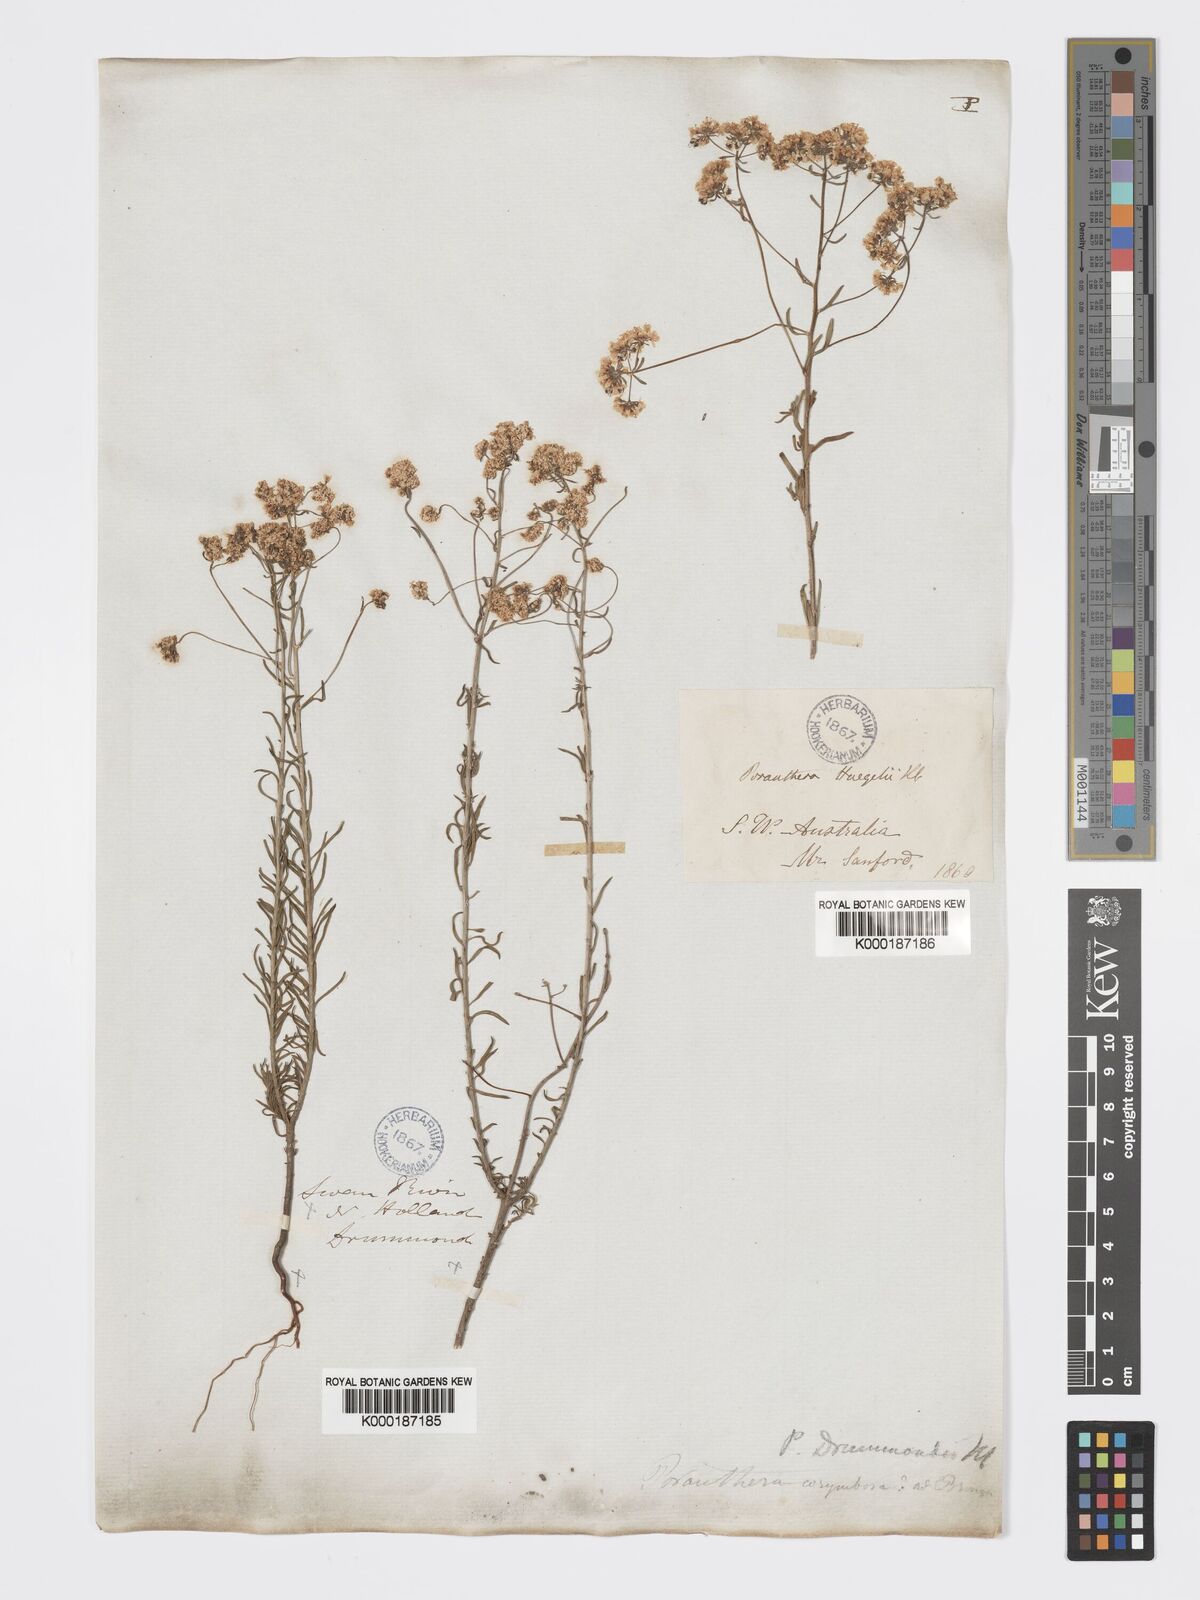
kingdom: Plantae
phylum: Tracheophyta
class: Magnoliopsida
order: Malpighiales
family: Phyllanthaceae
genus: Poranthera
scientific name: Poranthera huegelii
